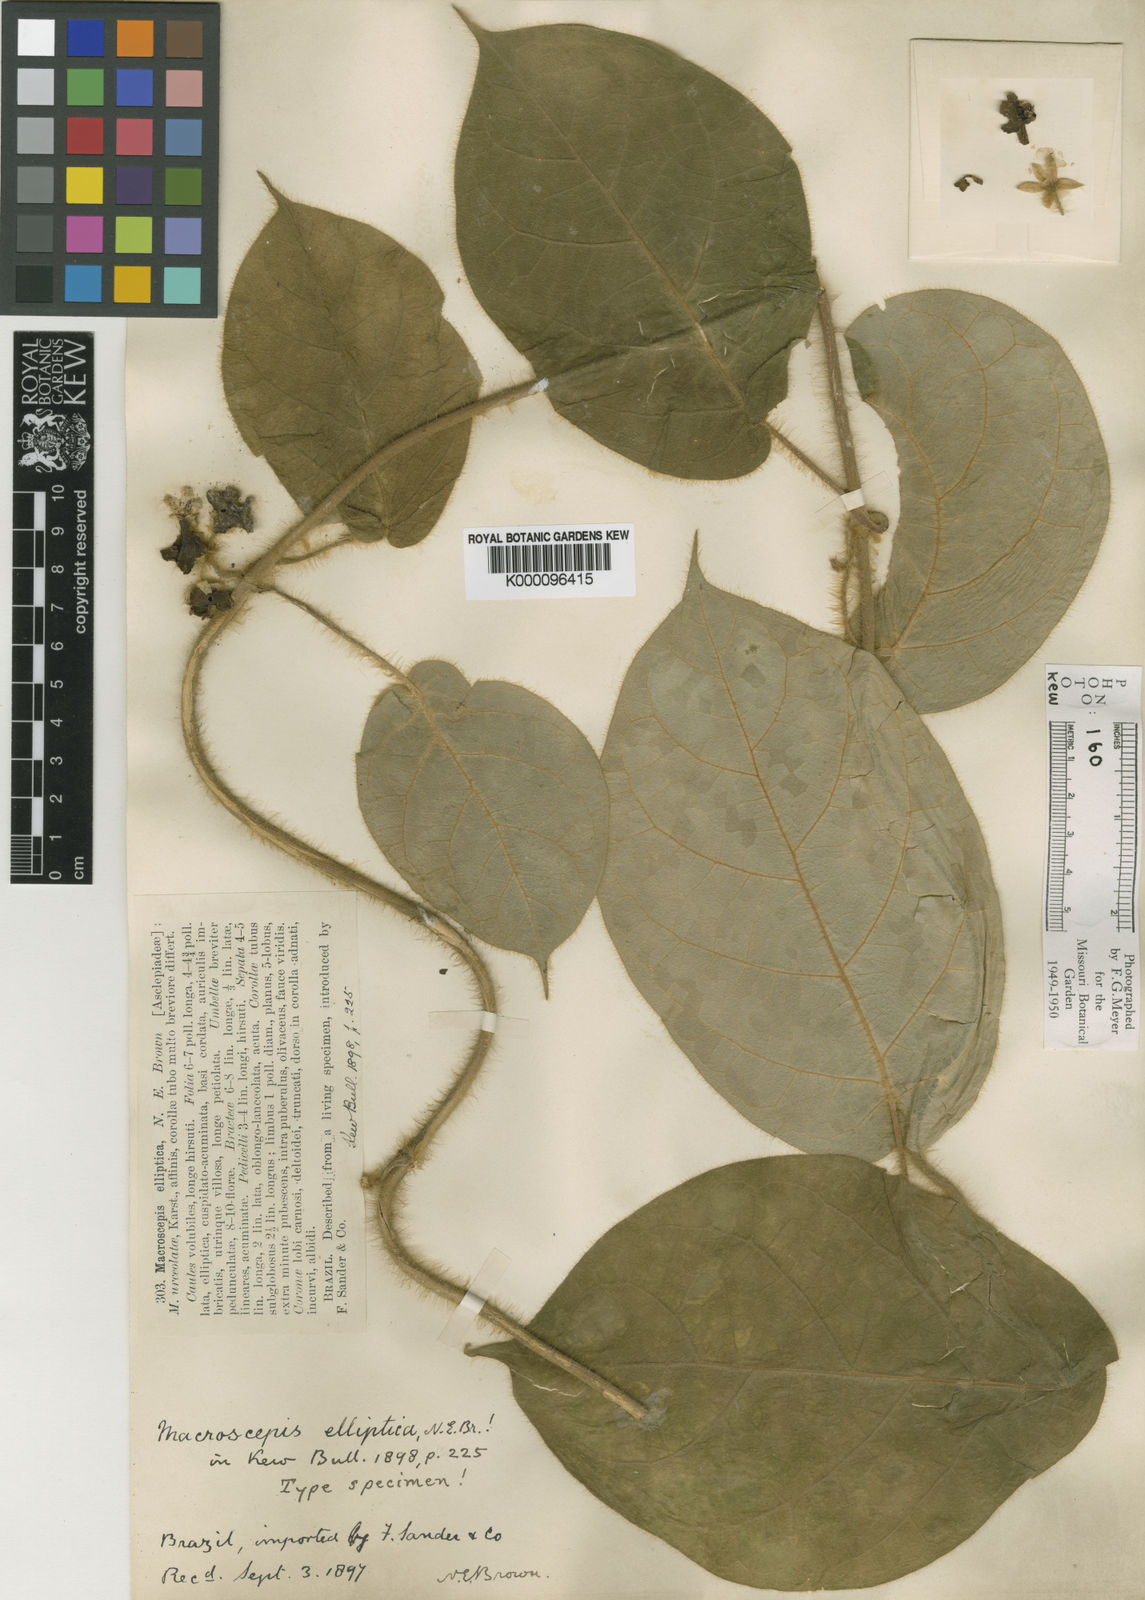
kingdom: Plantae
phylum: Tracheophyta
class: Magnoliopsida
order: Gentianales
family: Apocynaceae
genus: Macroscepis
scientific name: Macroscepis elliptica
